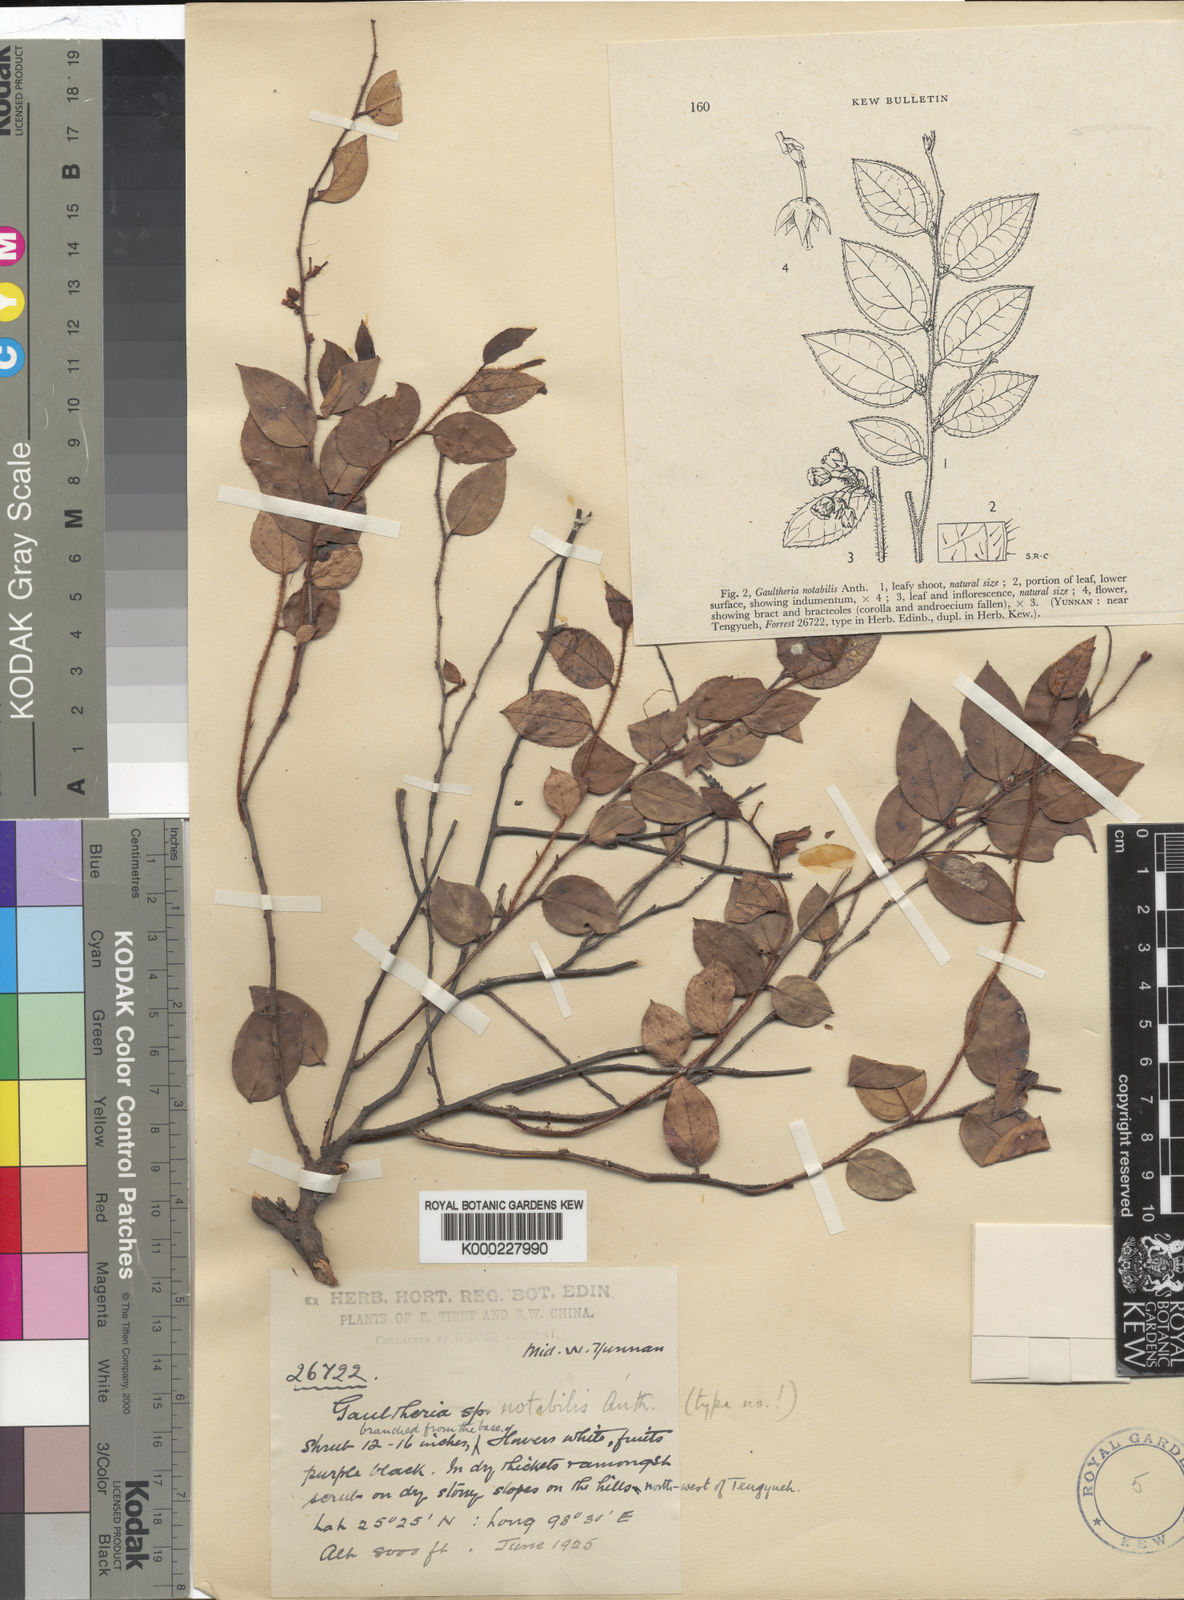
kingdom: Plantae
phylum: Tracheophyta
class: Magnoliopsida
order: Ericales
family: Ericaceae
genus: Gaultheria
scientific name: Gaultheria notabilis
